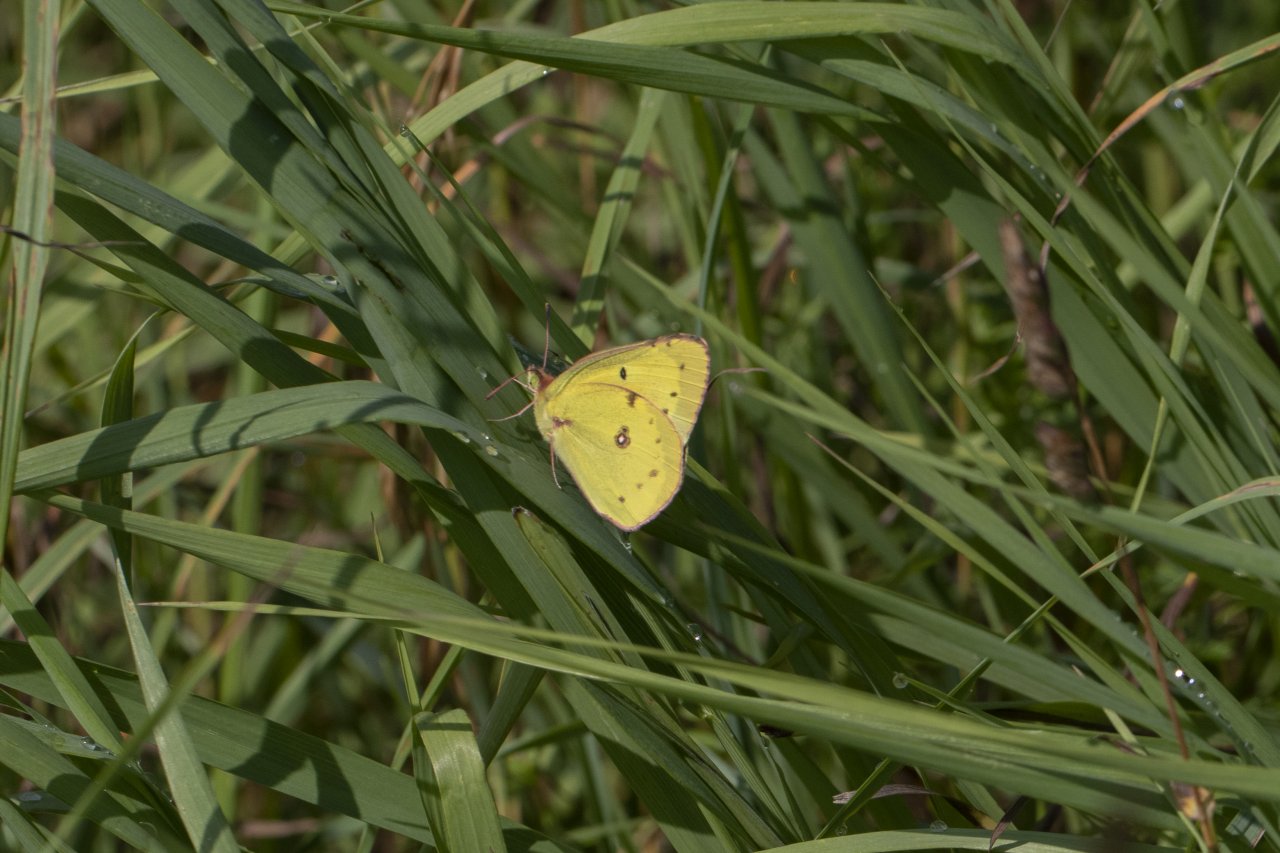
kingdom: Animalia
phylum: Arthropoda
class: Insecta
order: Lepidoptera
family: Pieridae
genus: Colias
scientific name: Colias eurytheme
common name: Orange Sulphur
